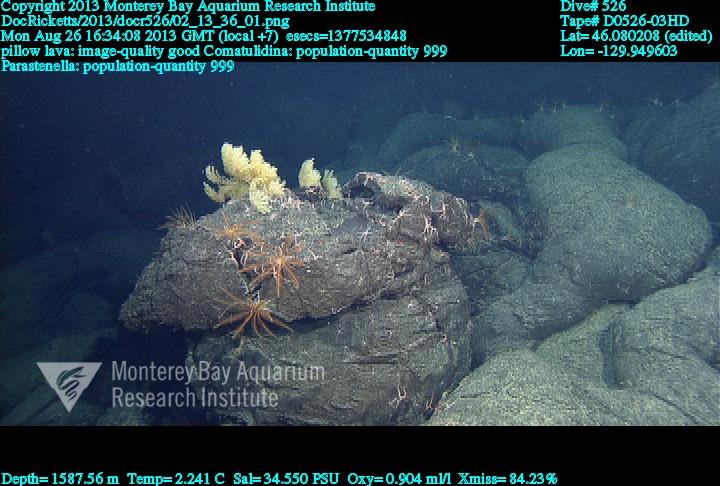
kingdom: Animalia
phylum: Cnidaria
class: Anthozoa
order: Scleralcyonacea
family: Primnoidae
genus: Parastenella
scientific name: Parastenella
